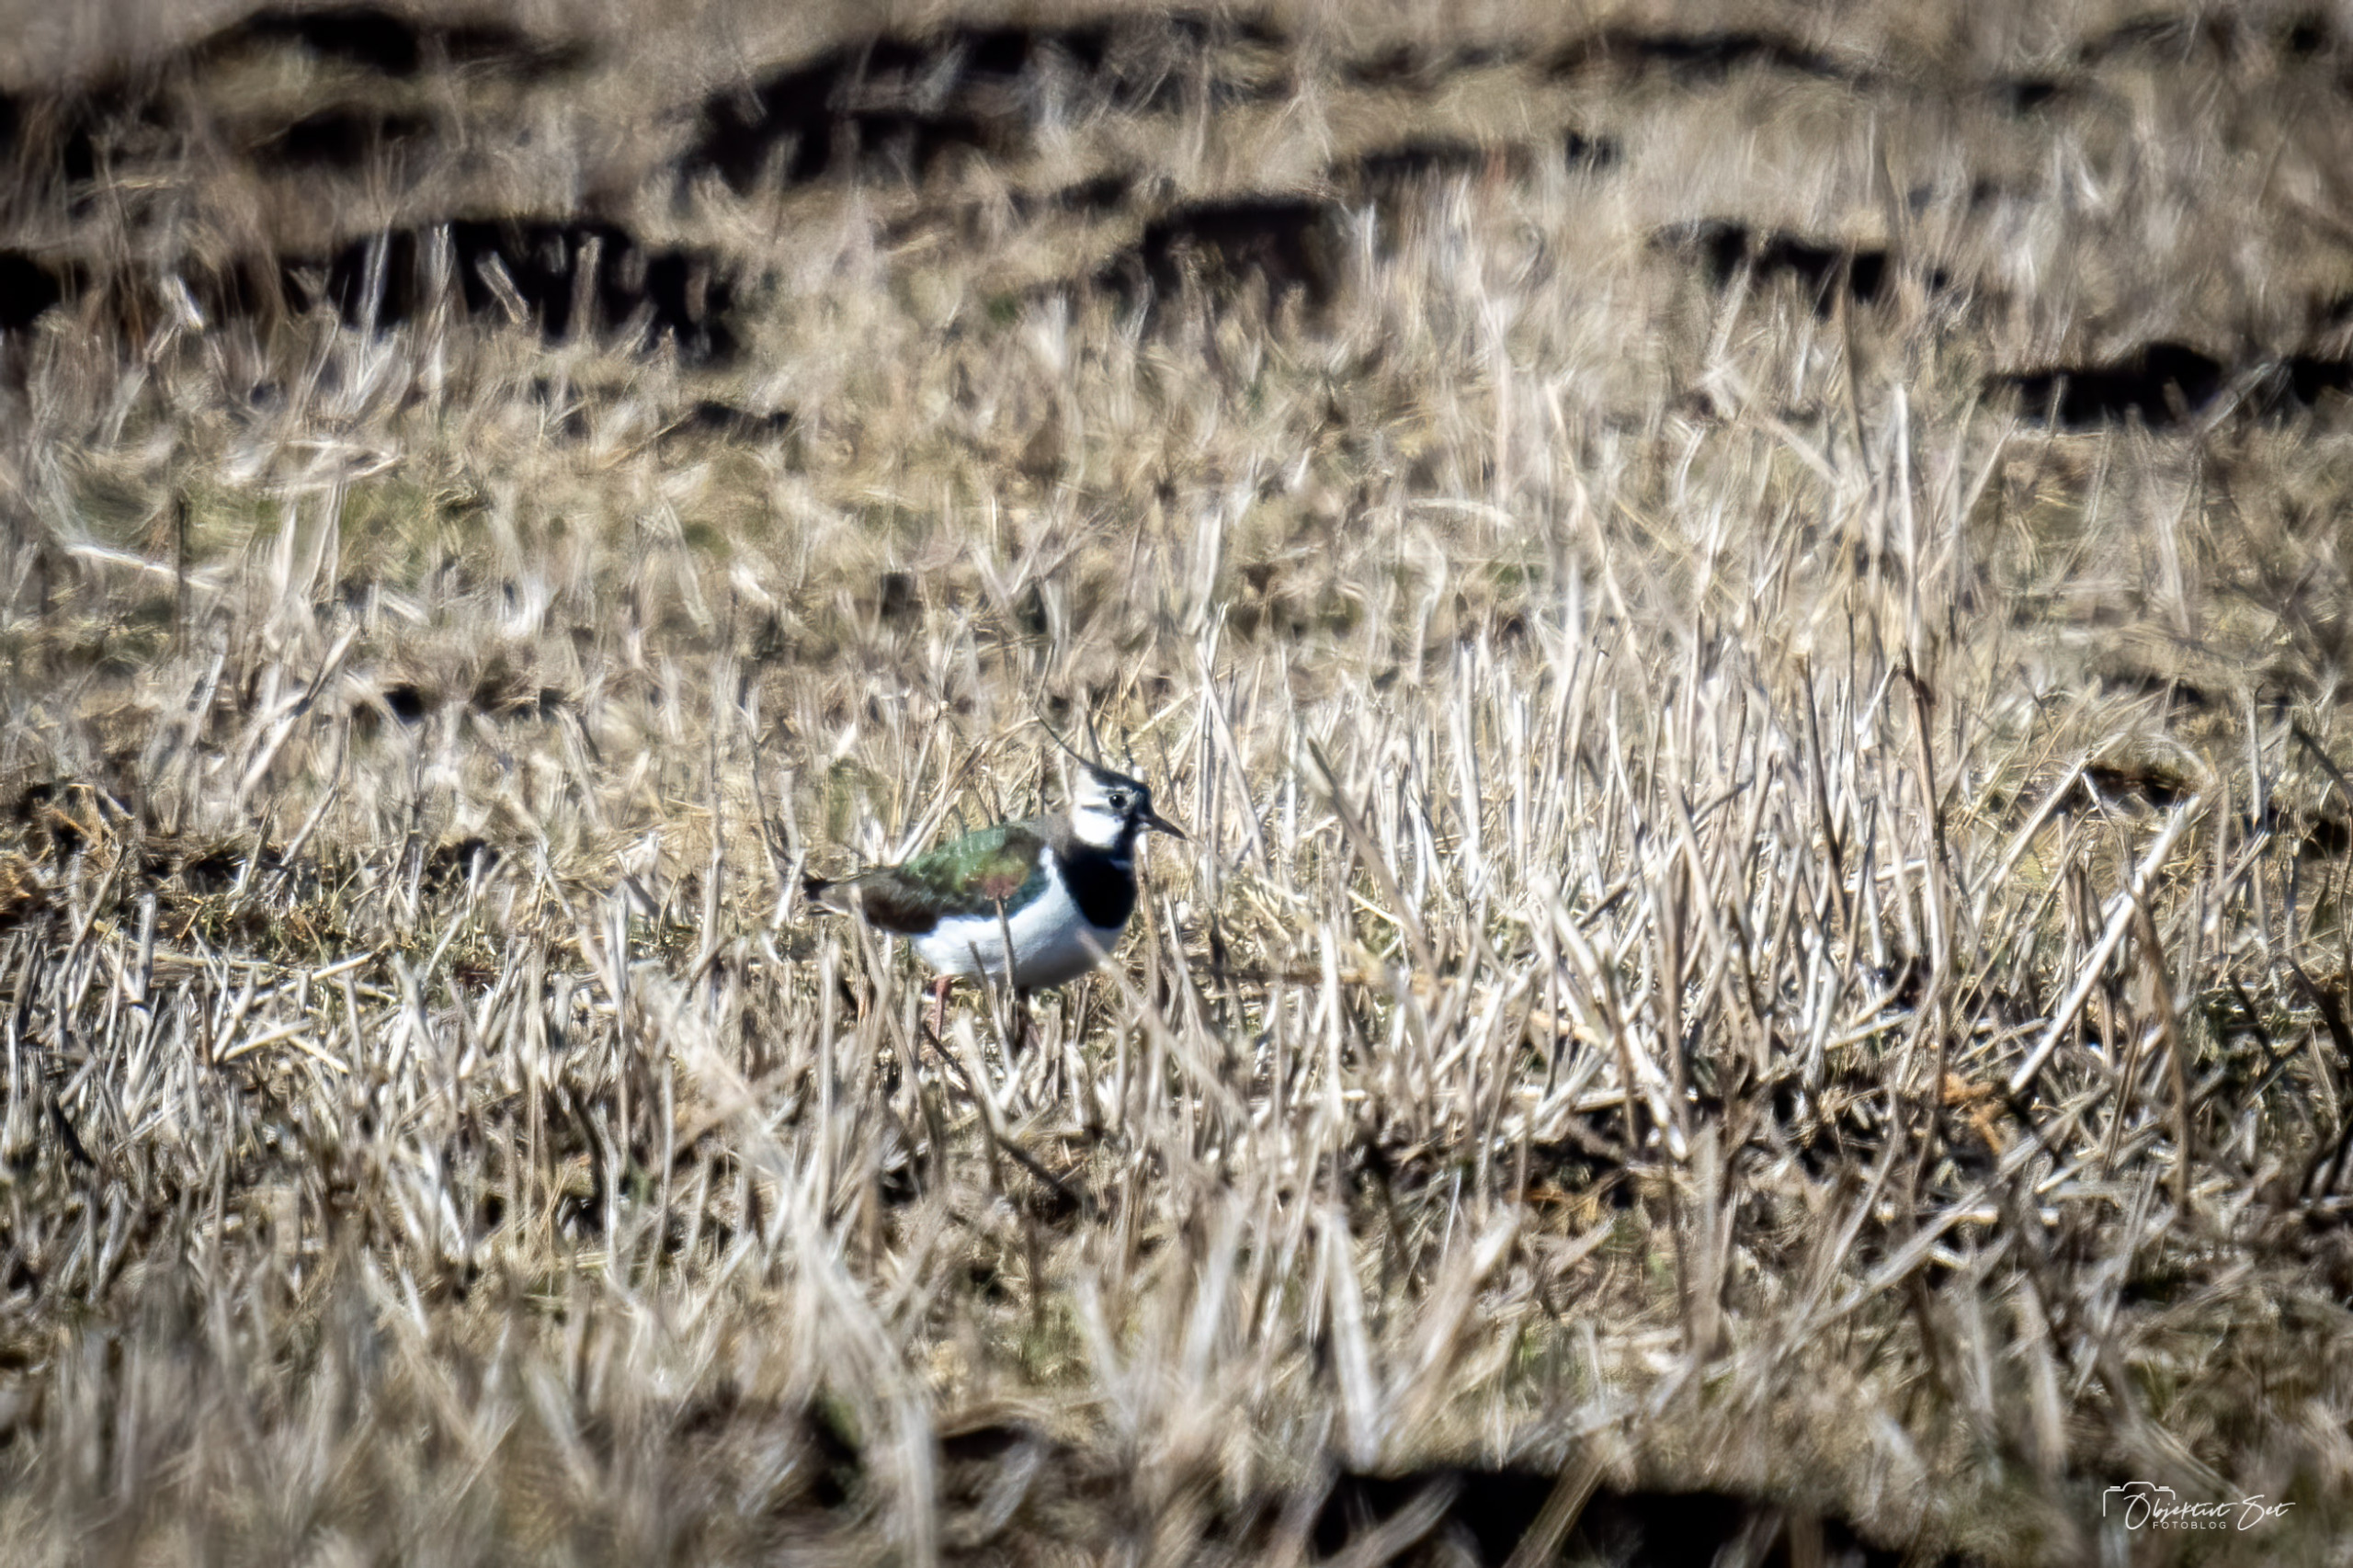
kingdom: Animalia
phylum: Chordata
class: Aves
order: Charadriiformes
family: Charadriidae
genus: Vanellus
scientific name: Vanellus vanellus
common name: Vibe
